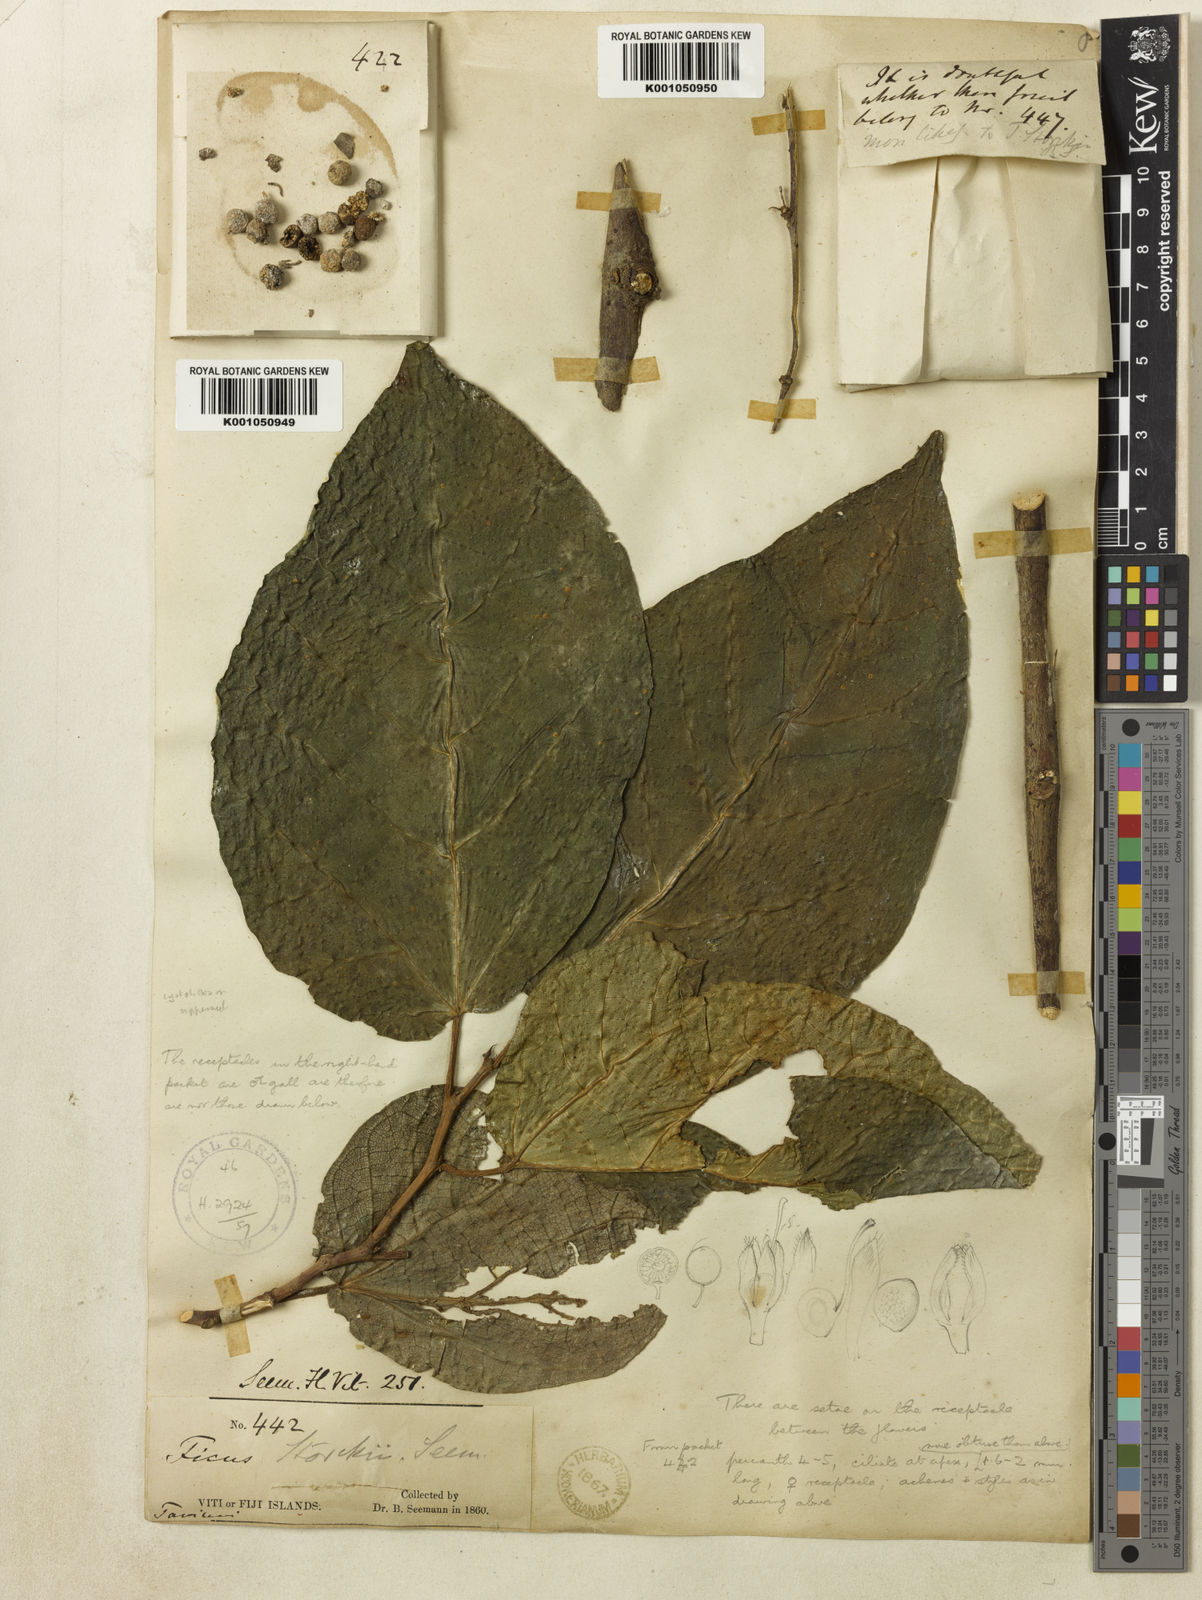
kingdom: Plantae
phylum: Tracheophyta
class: Magnoliopsida
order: Rosales
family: Moraceae
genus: Ficus
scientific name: Ficus storckii
